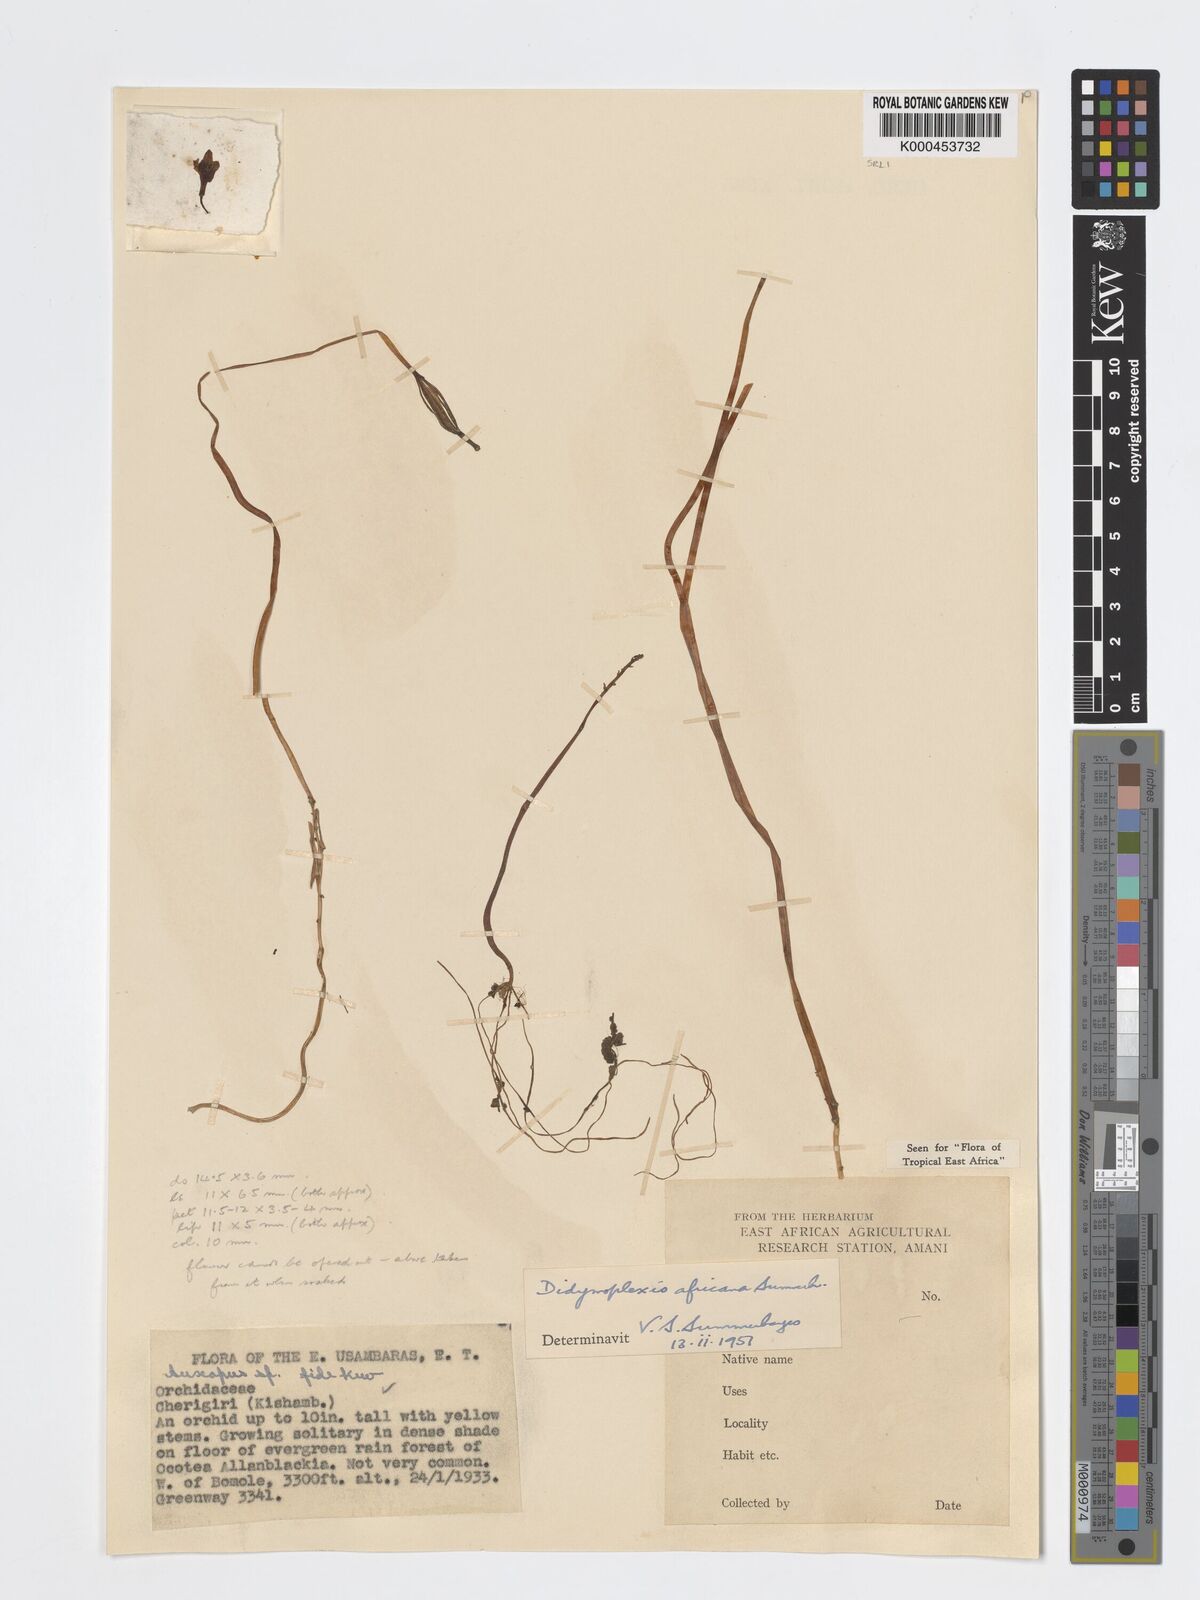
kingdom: Plantae
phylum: Tracheophyta
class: Liliopsida
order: Asparagales
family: Orchidaceae
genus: Didymoplexis
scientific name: Didymoplexis africana
